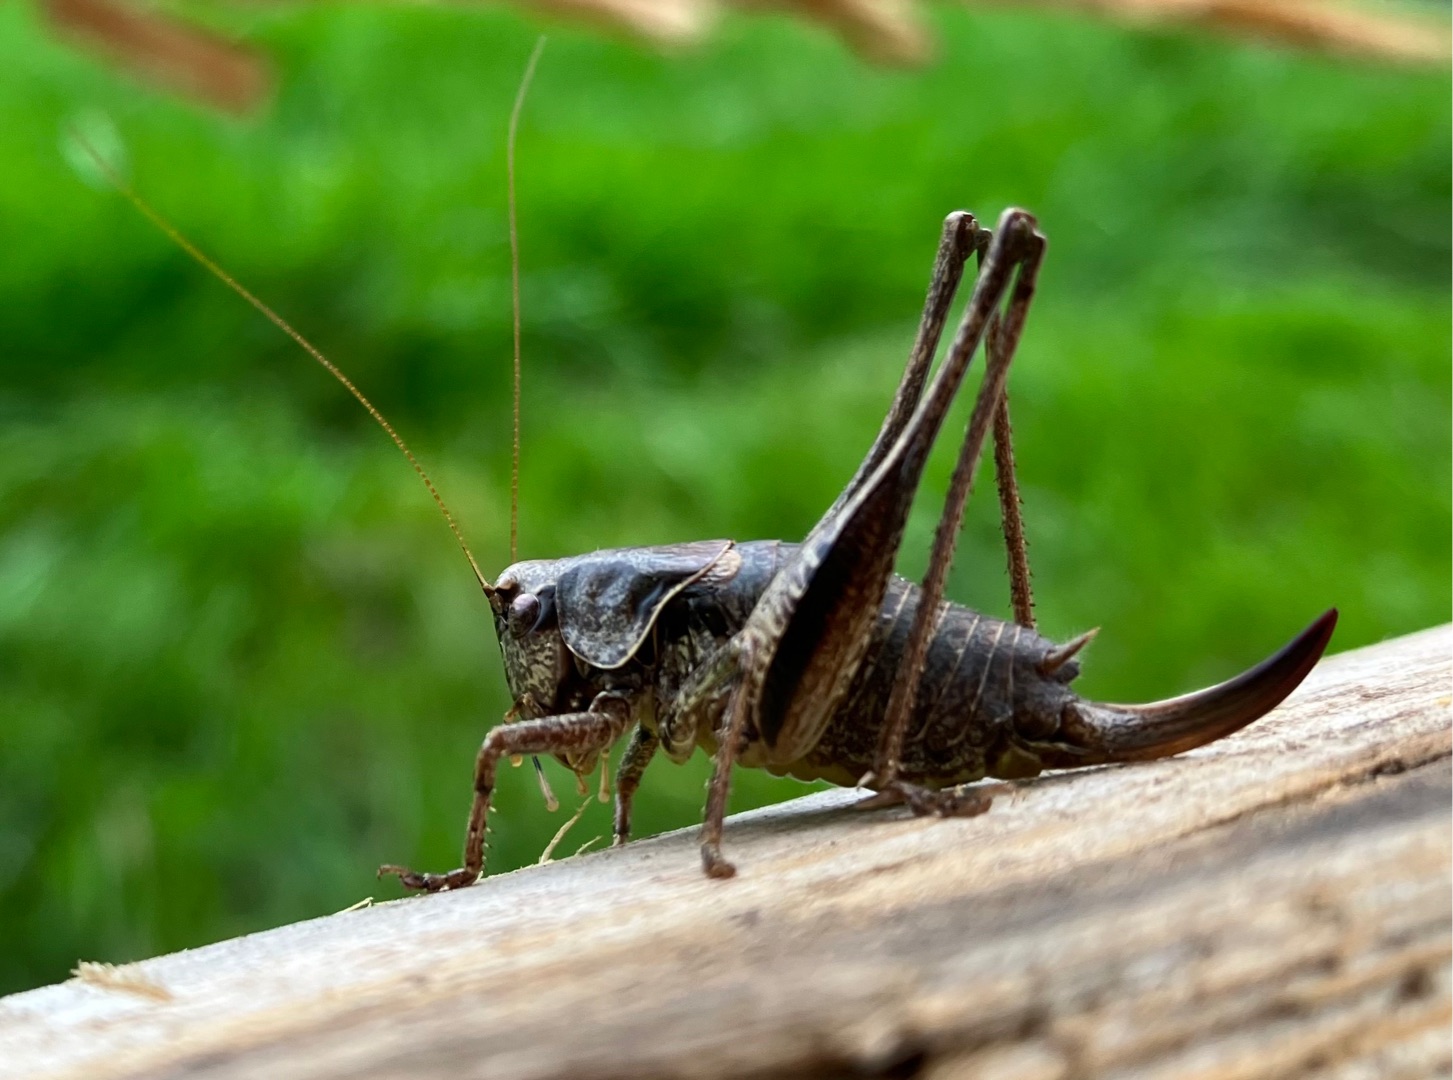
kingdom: Animalia
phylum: Arthropoda
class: Insecta
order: Orthoptera
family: Tettigoniidae
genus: Pholidoptera
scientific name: Pholidoptera griseoaptera
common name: Buskgræshoppe
